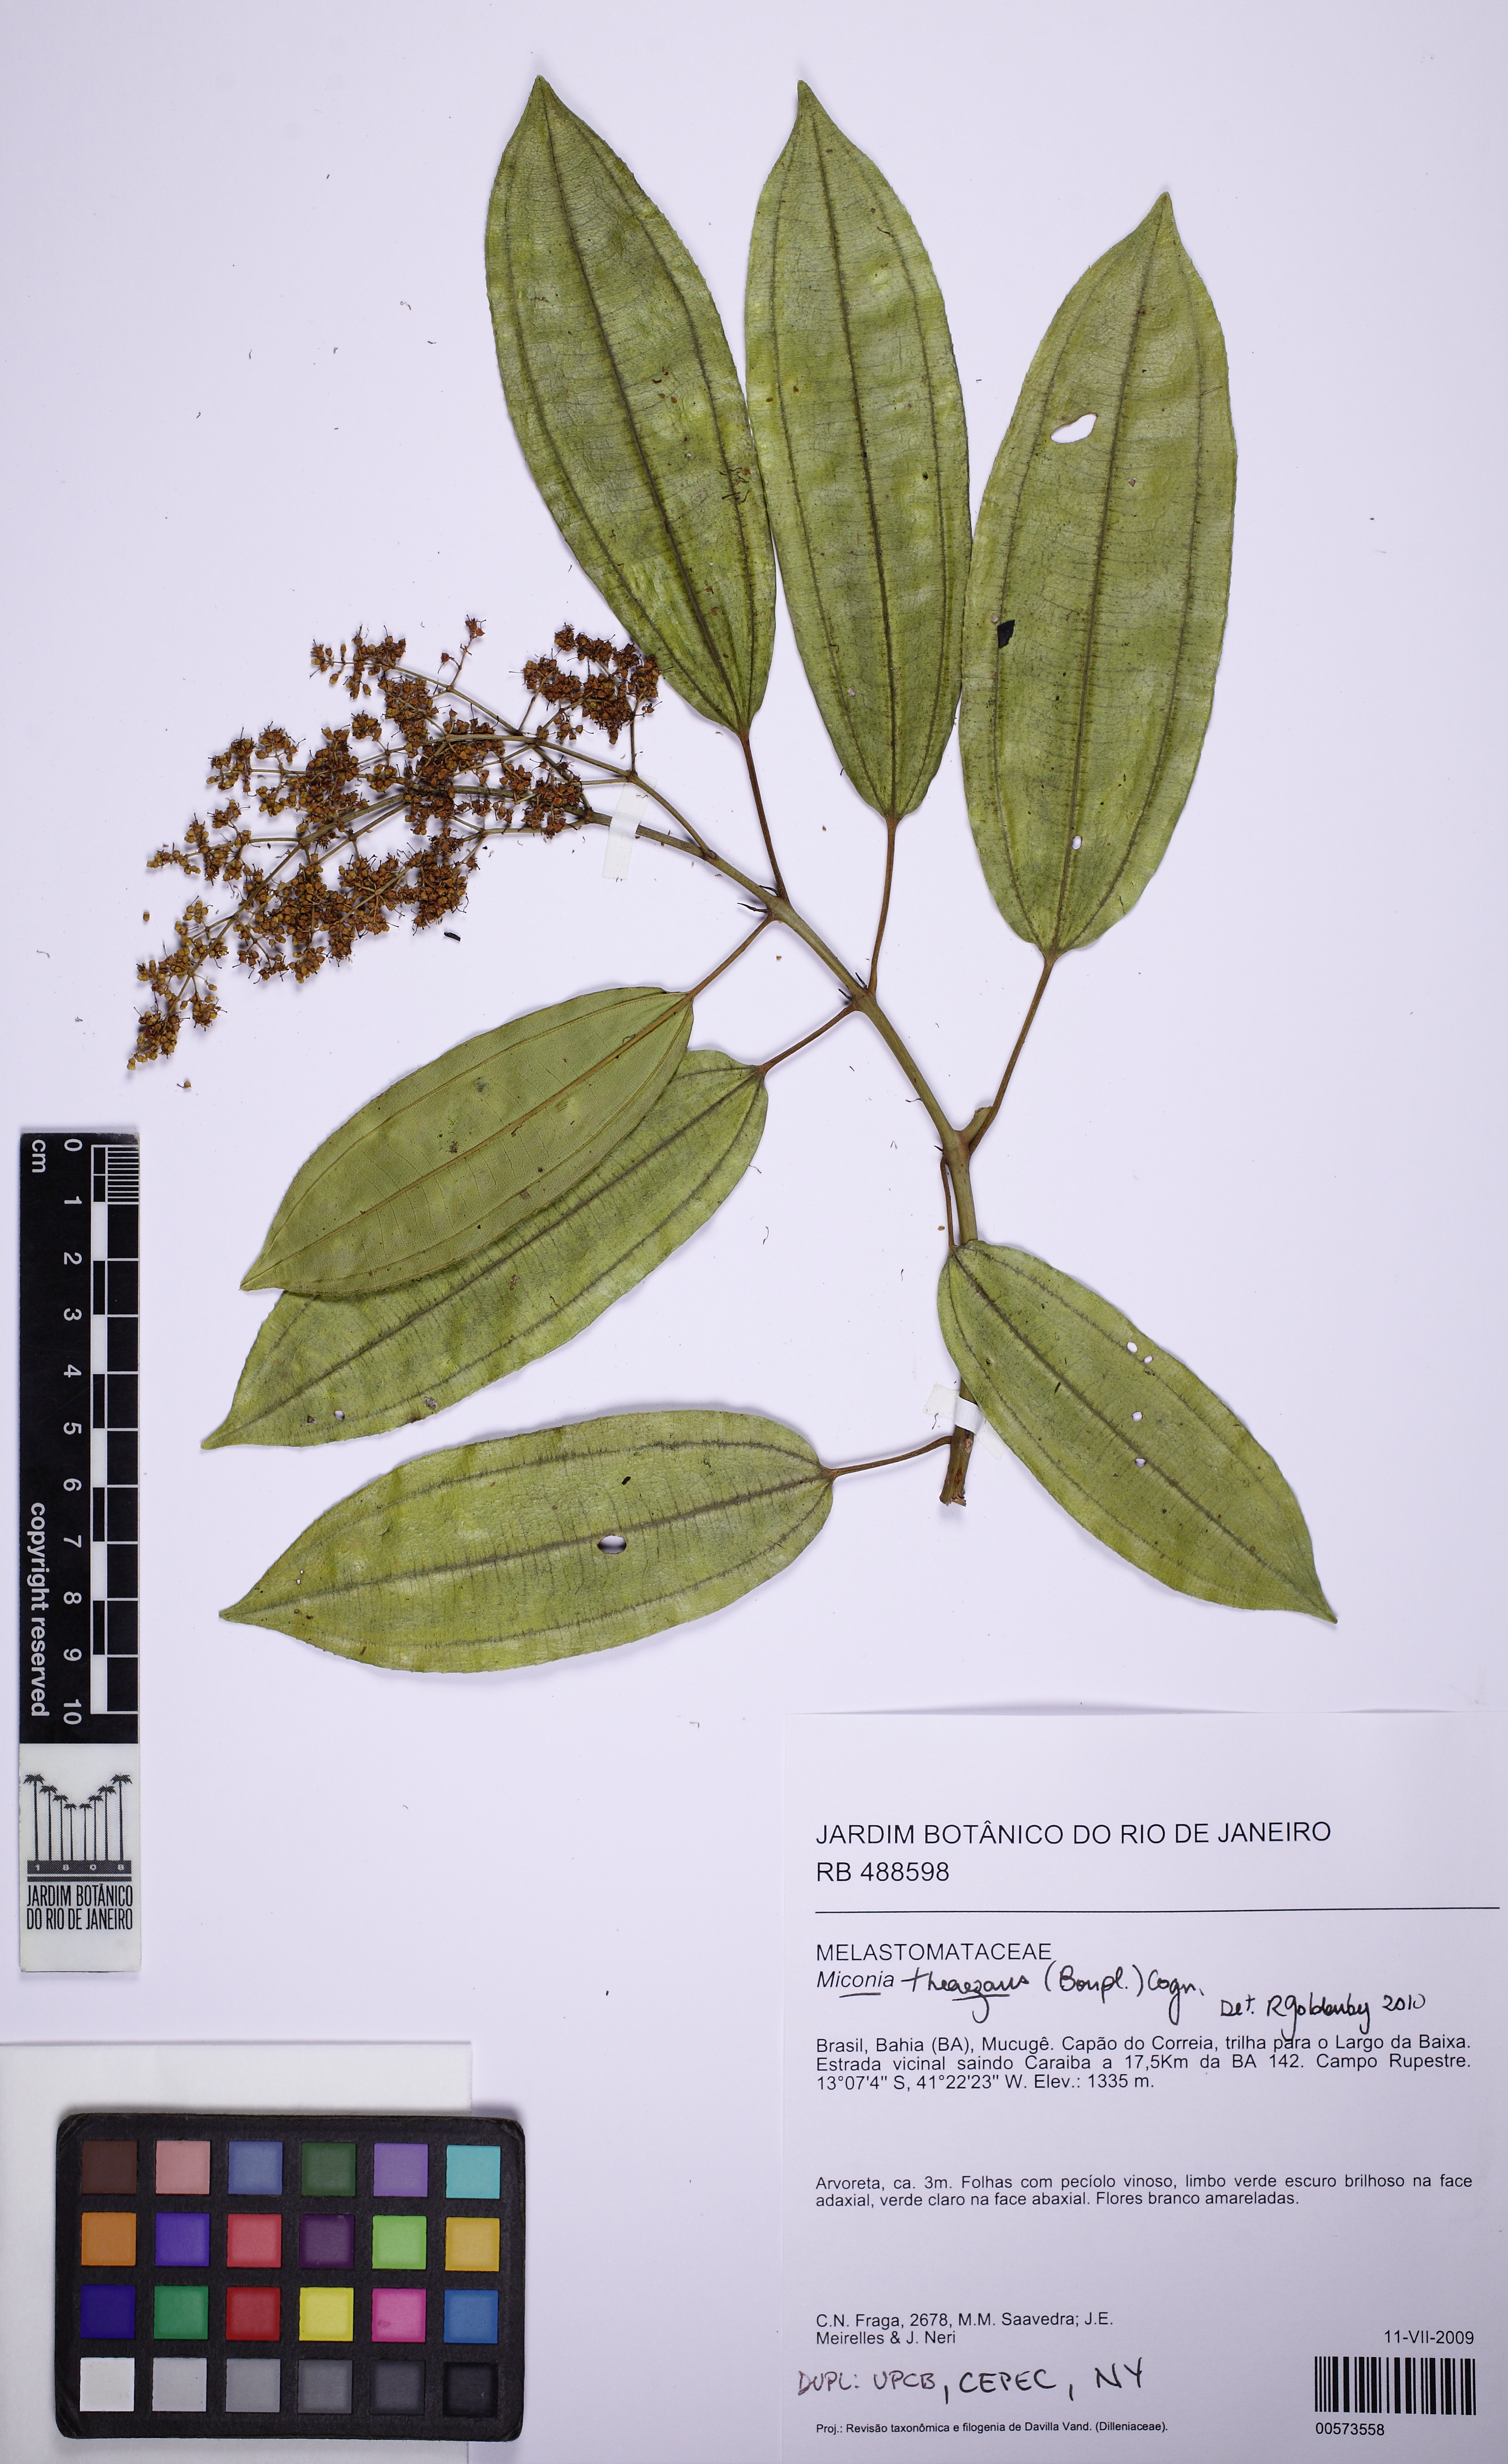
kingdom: Plantae
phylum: Tracheophyta
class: Magnoliopsida
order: Myrtales
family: Melastomataceae
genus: Miconia
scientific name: Miconia theizans
